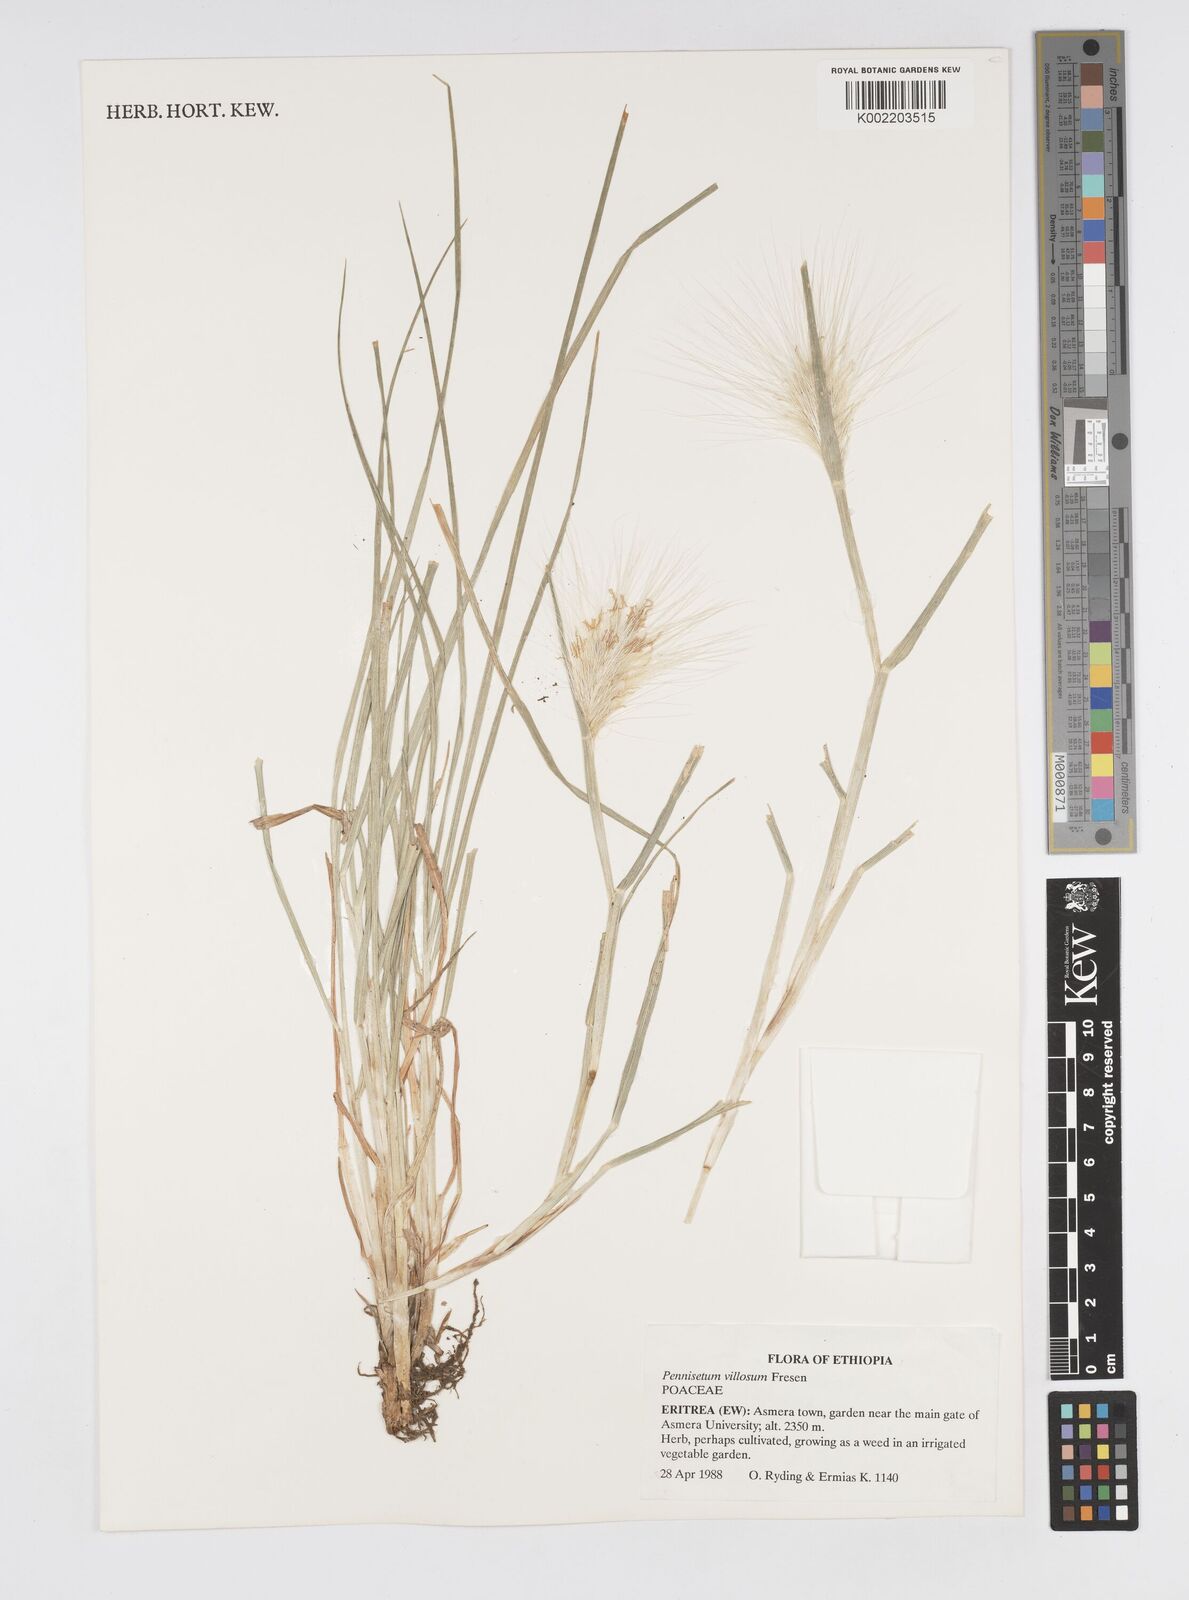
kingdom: Plantae
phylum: Tracheophyta
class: Liliopsida
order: Poales
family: Poaceae
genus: Cenchrus
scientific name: Cenchrus longisetus
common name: Feathertop
